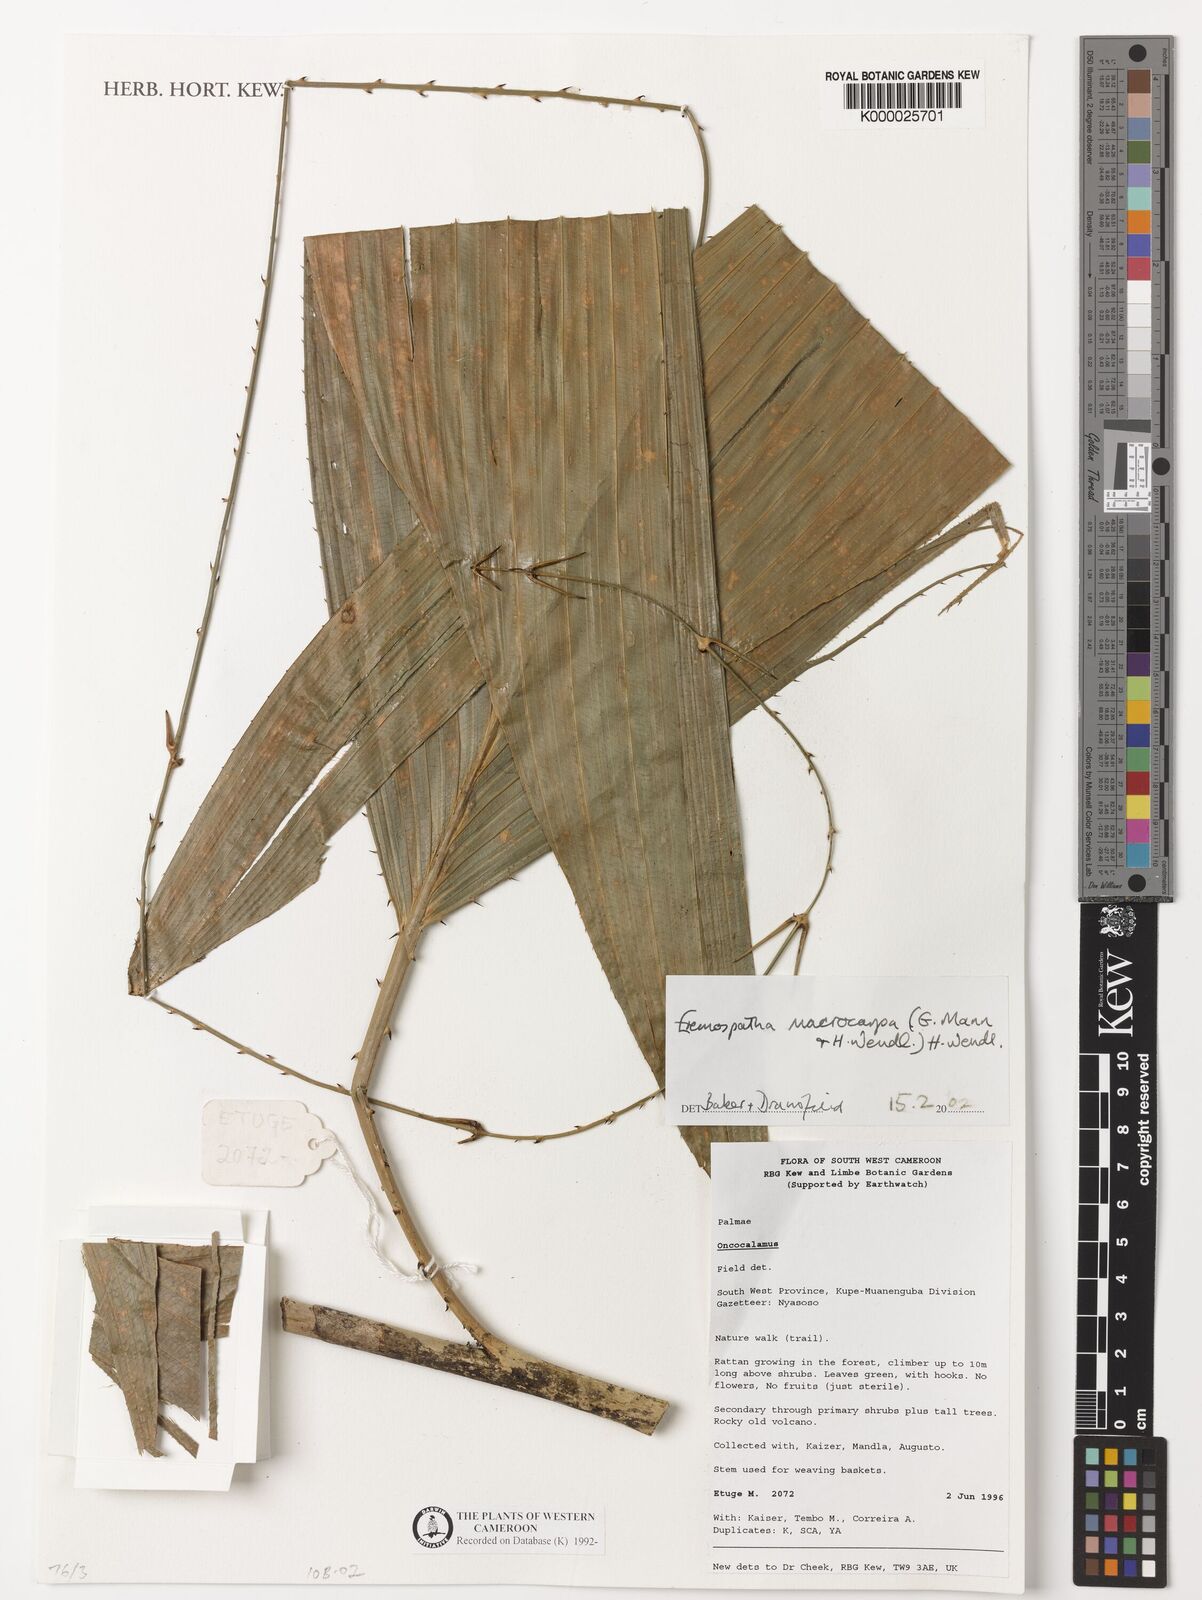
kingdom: Plantae
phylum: Tracheophyta
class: Liliopsida
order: Arecales
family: Arecaceae
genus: Eremospatha
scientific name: Eremospatha
